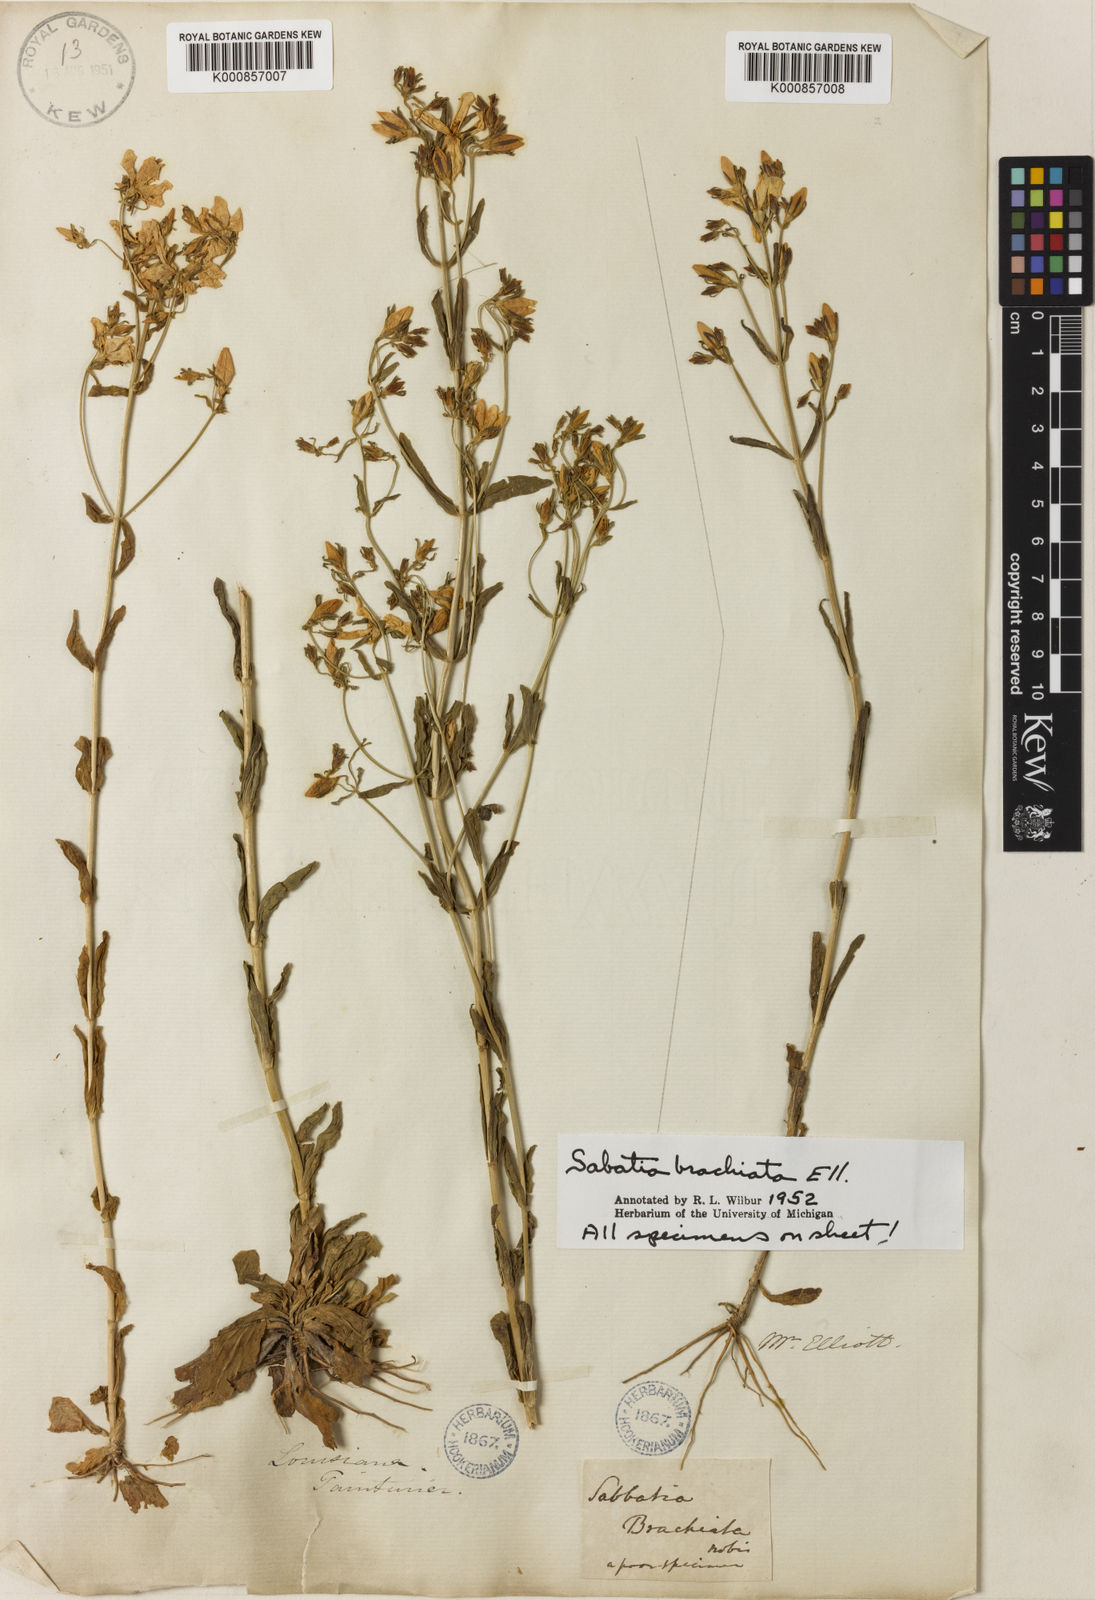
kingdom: Plantae
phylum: Tracheophyta
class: Magnoliopsida
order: Gentianales
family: Gentianaceae
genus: Sabatia
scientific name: Sabatia brachiata
